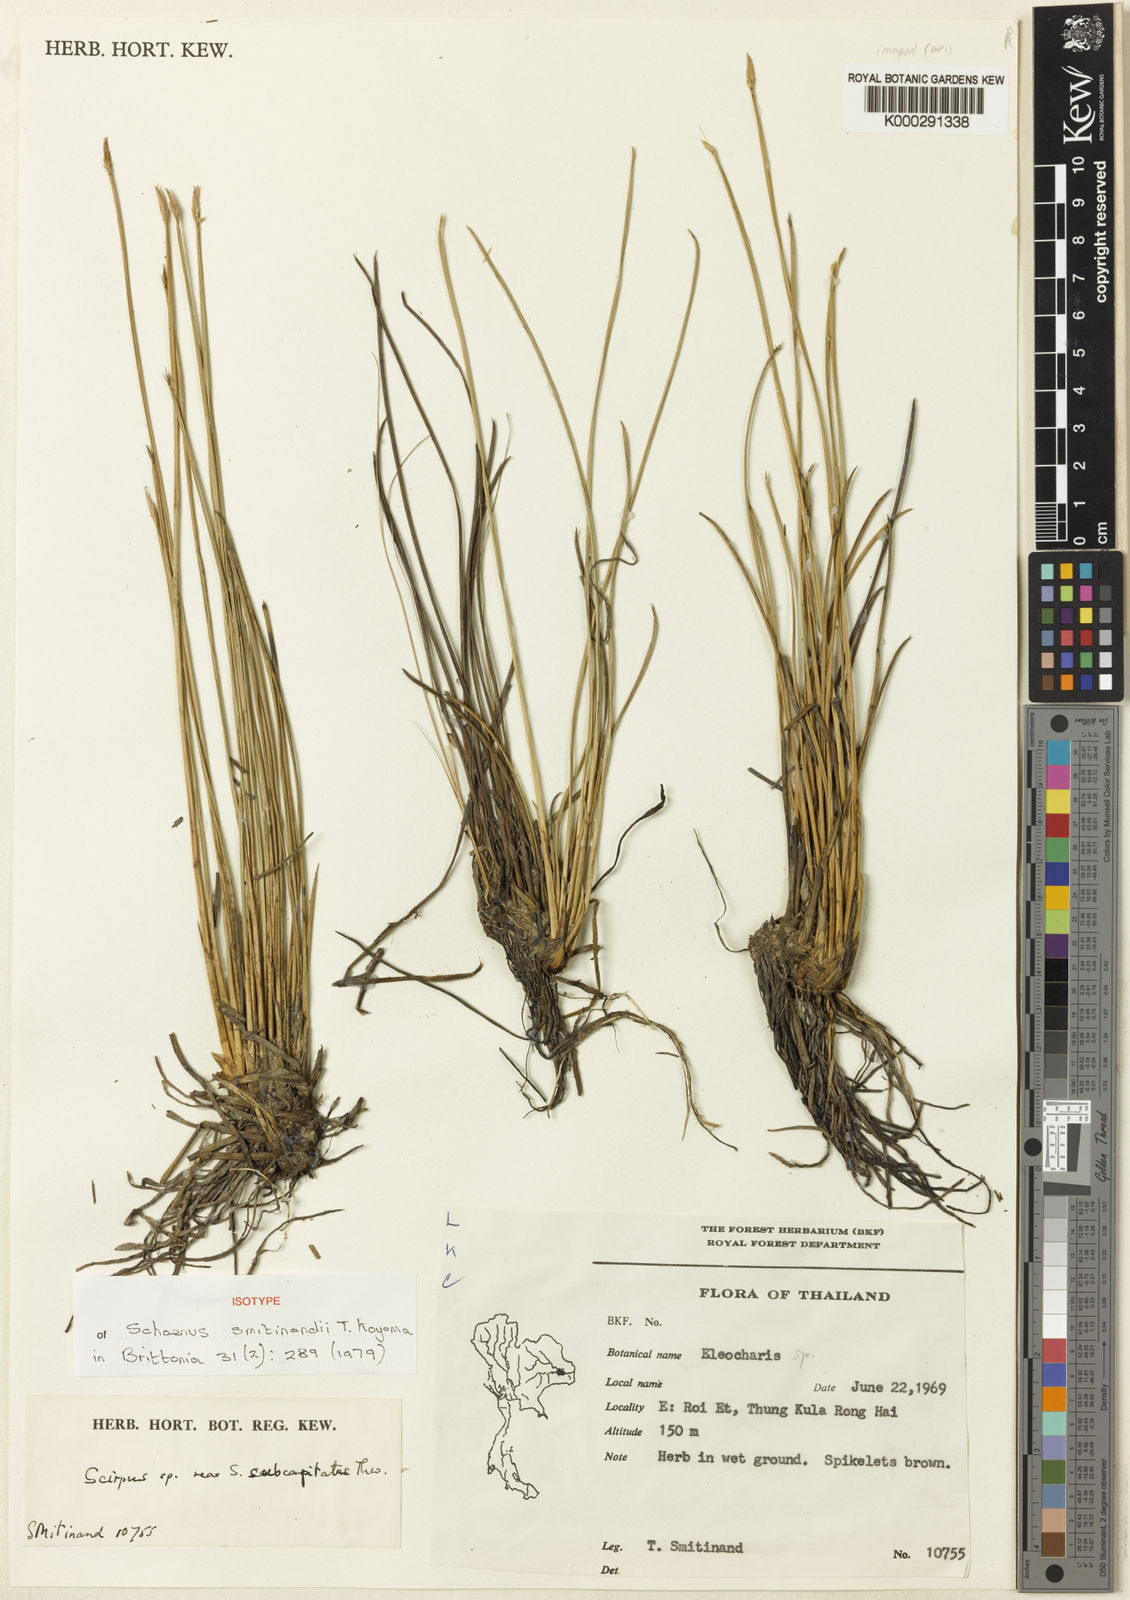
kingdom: Plantae
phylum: Tracheophyta
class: Liliopsida
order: Poales
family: Cyperaceae
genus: Schoenus
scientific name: Schoenus smitinandii
